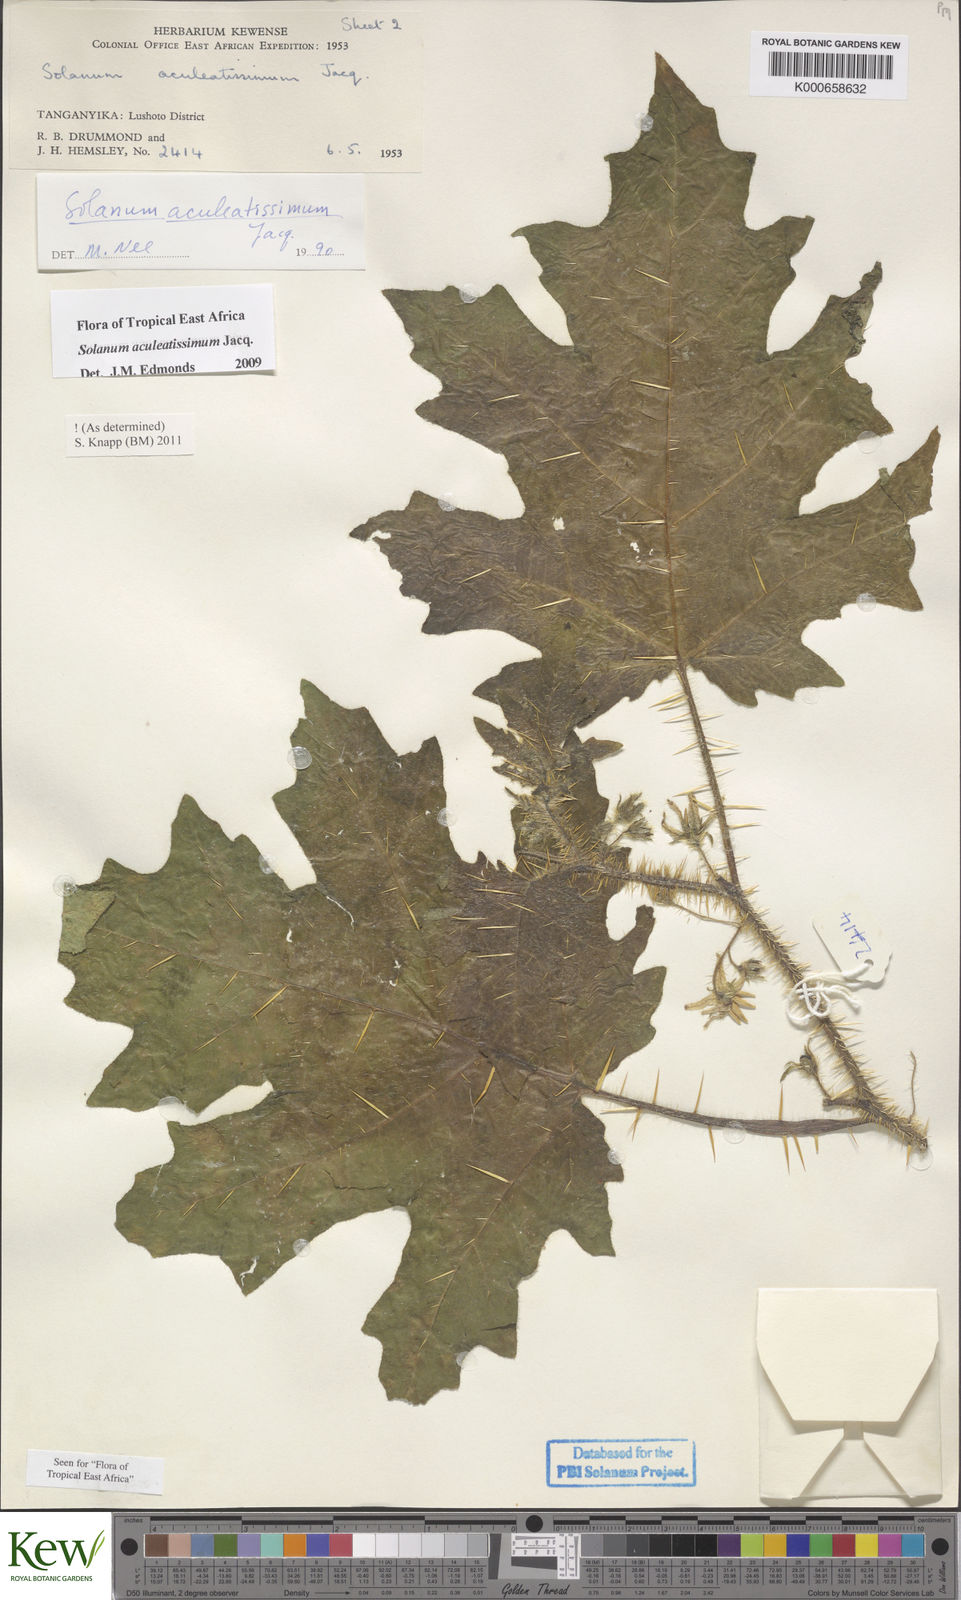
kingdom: Plantae
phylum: Tracheophyta
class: Magnoliopsida
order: Solanales
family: Solanaceae
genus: Solanum
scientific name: Solanum aculeatissimum
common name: Dutch eggplant
